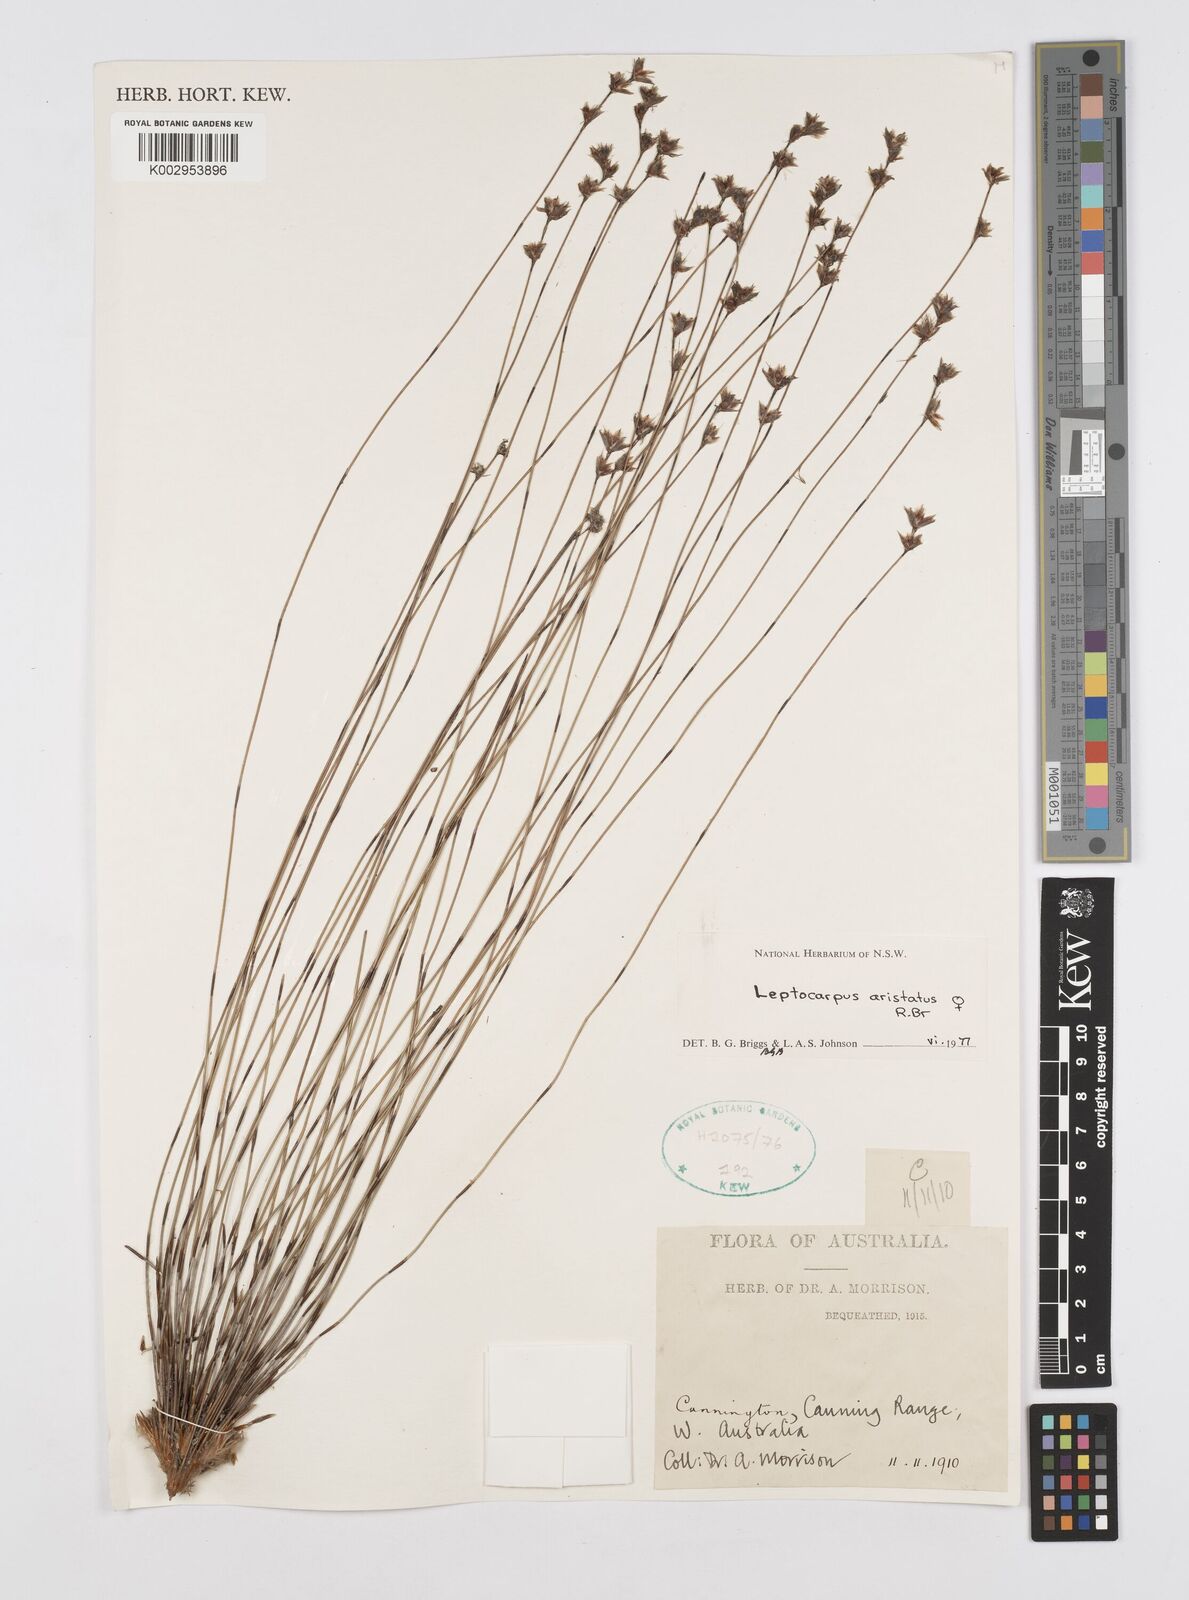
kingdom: Plantae
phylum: Tracheophyta
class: Liliopsida
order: Poales
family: Restionaceae
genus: Chaetanthus
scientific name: Chaetanthus aristatus
